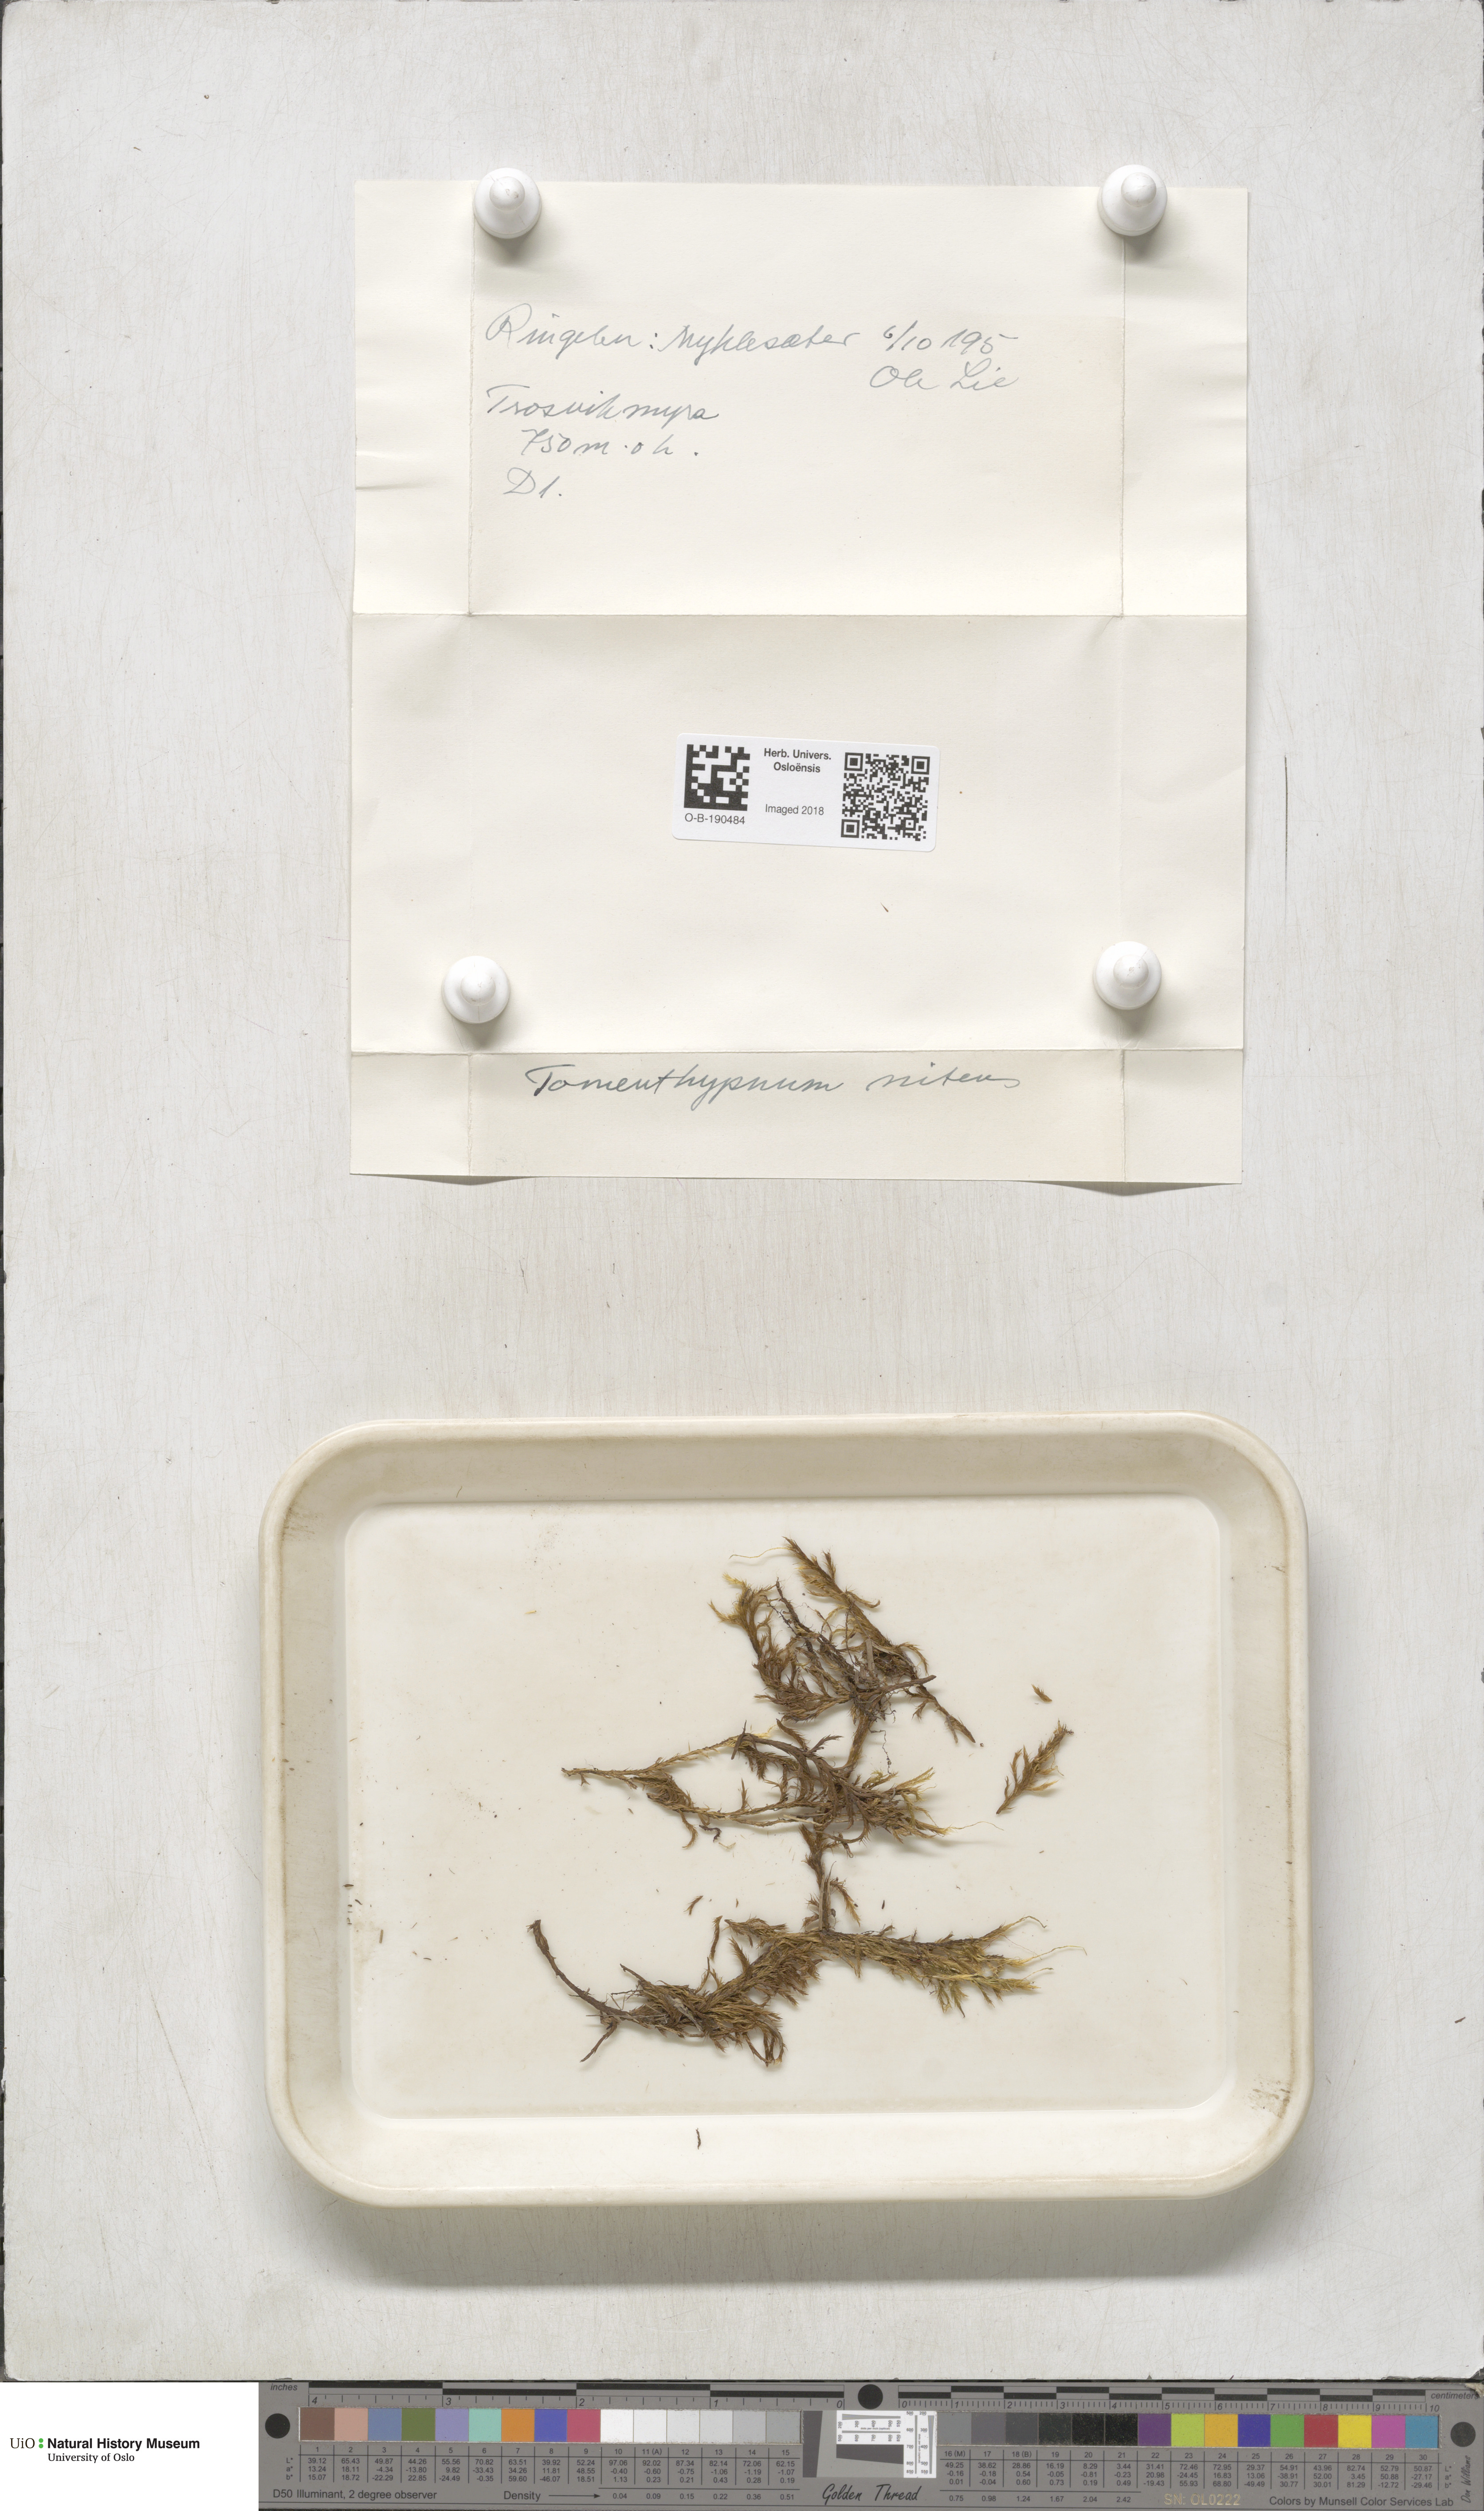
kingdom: Plantae
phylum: Bryophyta
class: Bryopsida
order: Hypnales
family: Amblystegiaceae
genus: Tomentypnum
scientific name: Tomentypnum nitens
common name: Golden fuzzy fen moss
